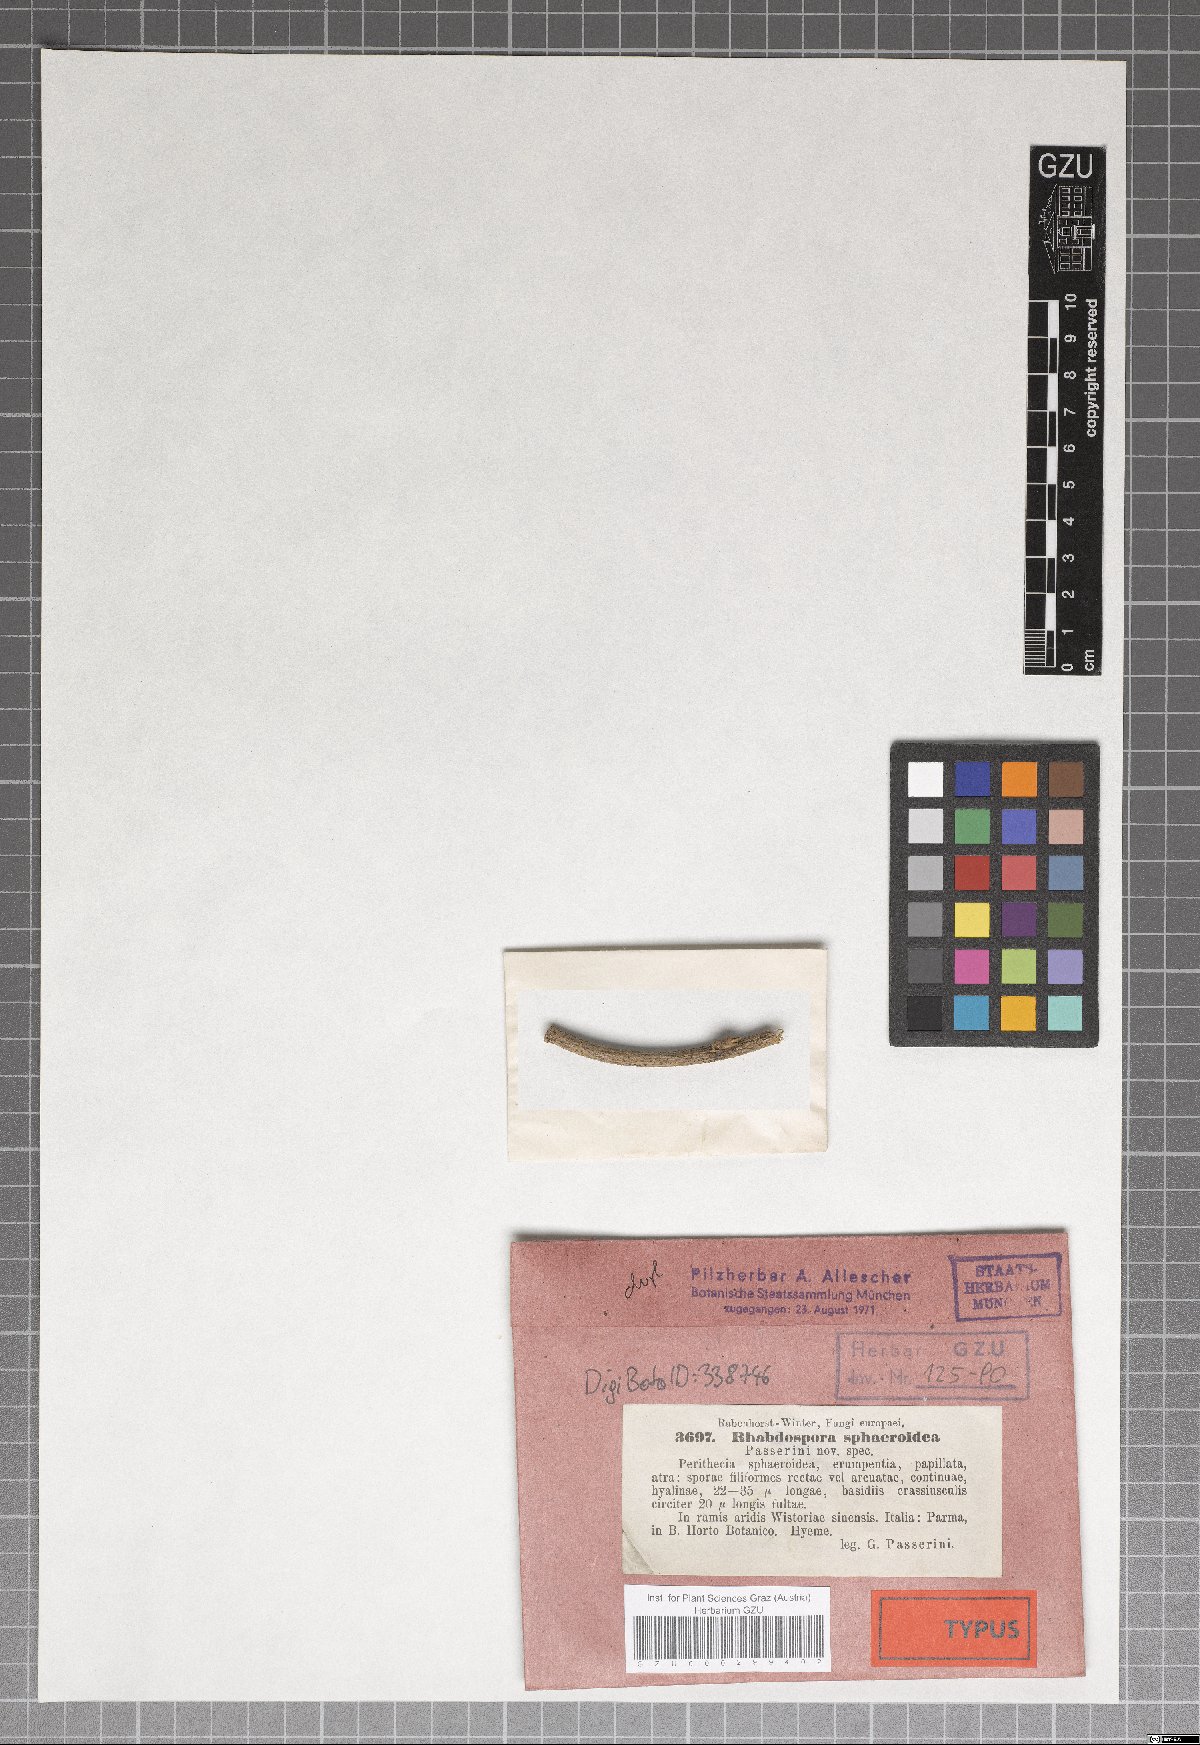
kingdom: Fungi
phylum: Ascomycota
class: Dothideomycetes
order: Mycosphaerellales
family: Mycosphaerellaceae
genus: Rhabdospora
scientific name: Rhabdospora
